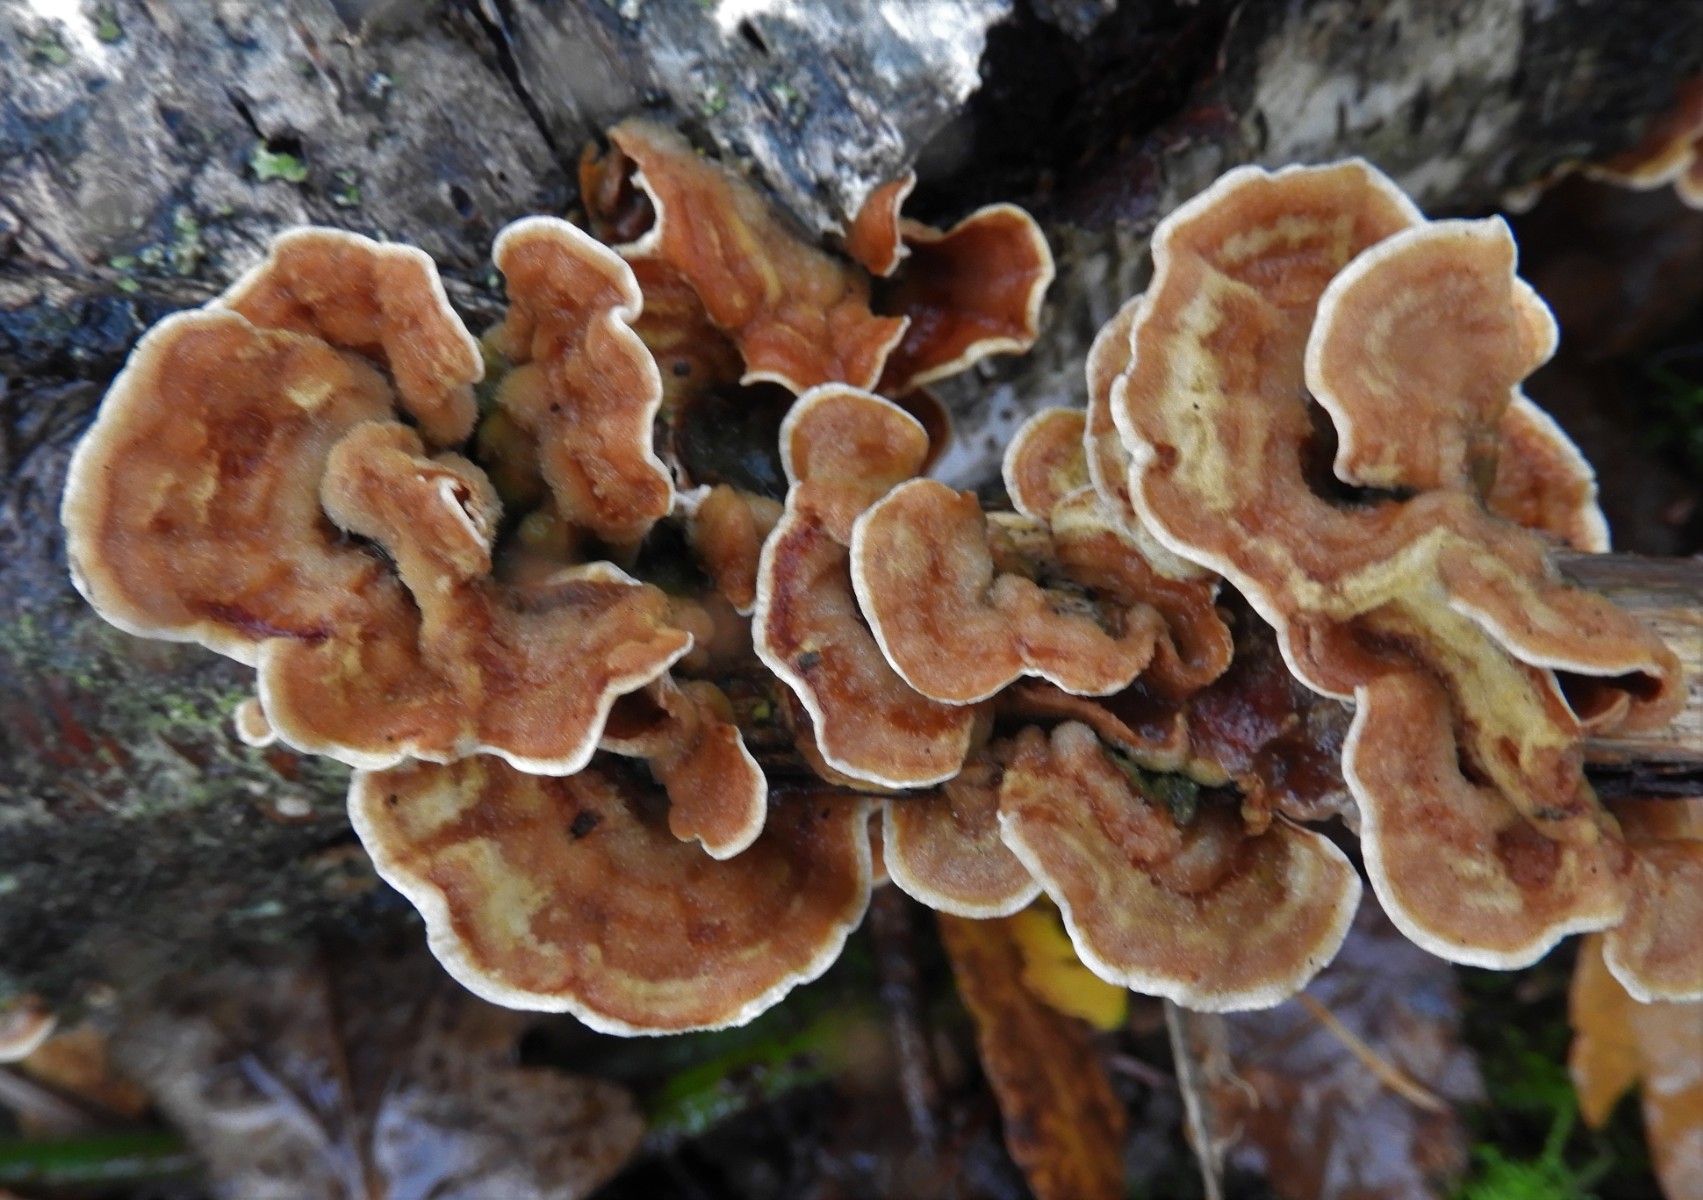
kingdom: Fungi
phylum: Basidiomycota
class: Agaricomycetes
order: Russulales
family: Stereaceae
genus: Stereum
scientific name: Stereum hirsutum
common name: håret lædersvamp
